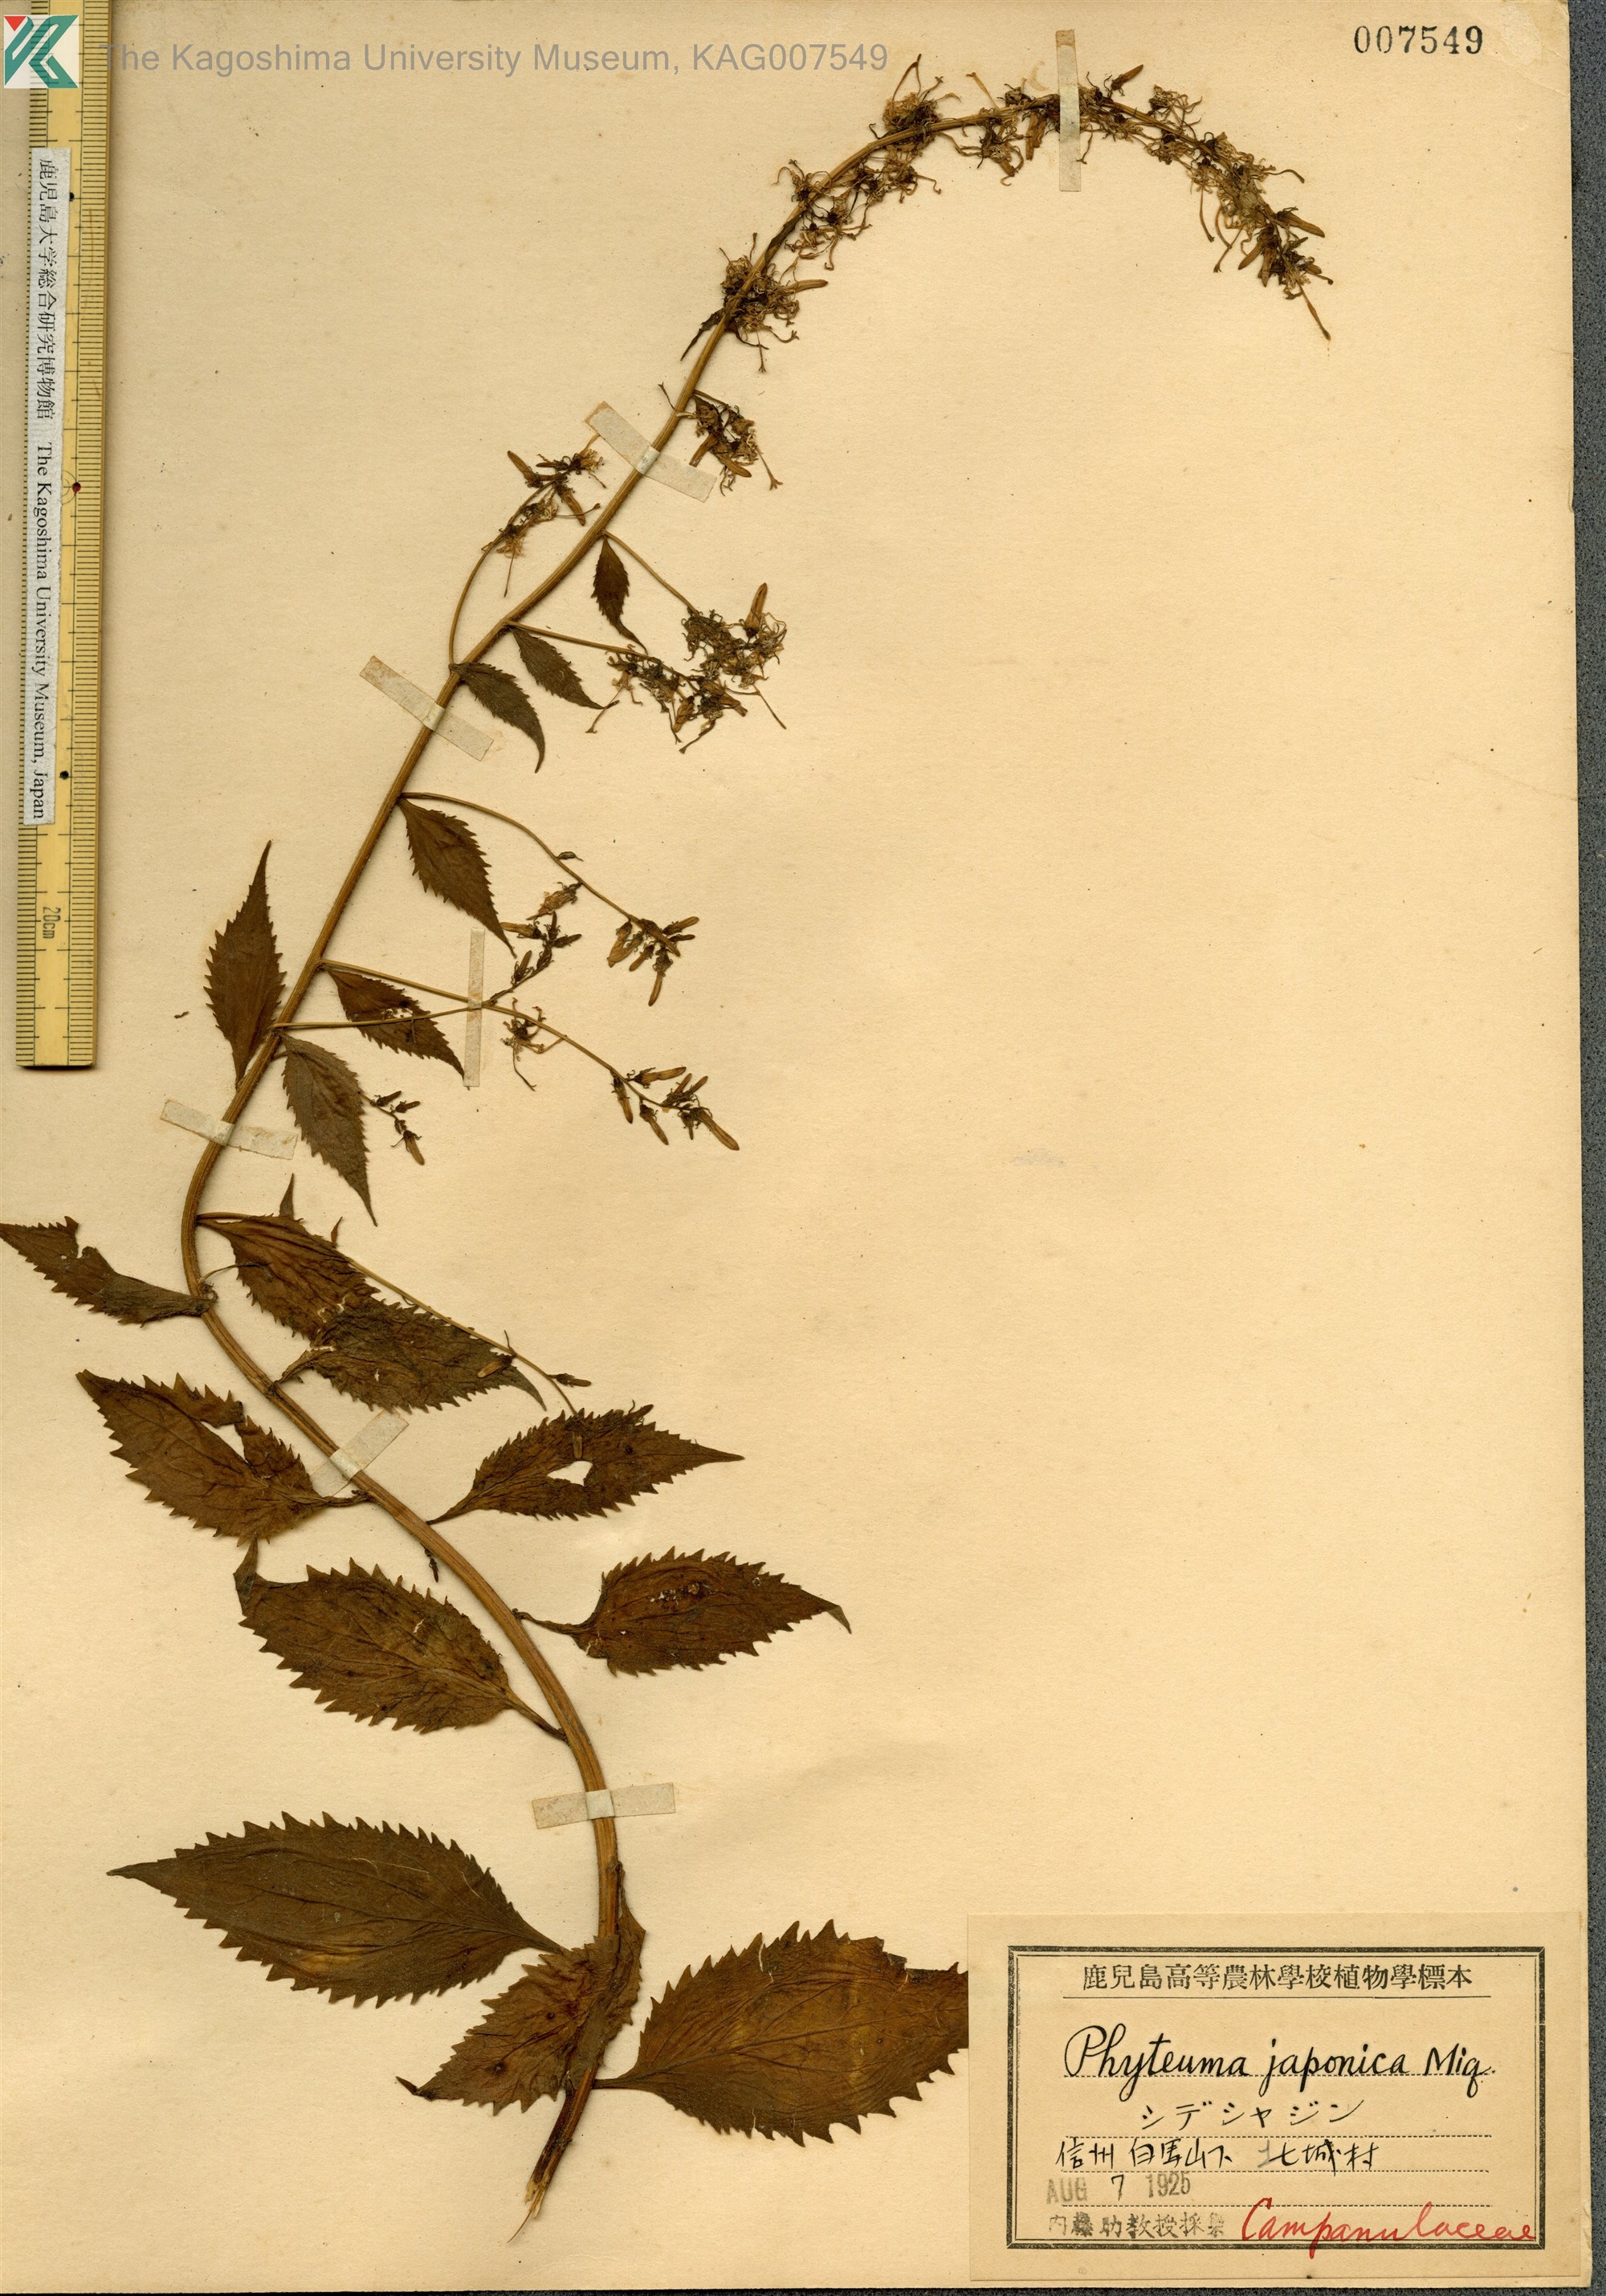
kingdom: Plantae
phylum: Tracheophyta
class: Magnoliopsida
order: Asterales
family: Campanulaceae
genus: Asyneuma
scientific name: Asyneuma japonicum
